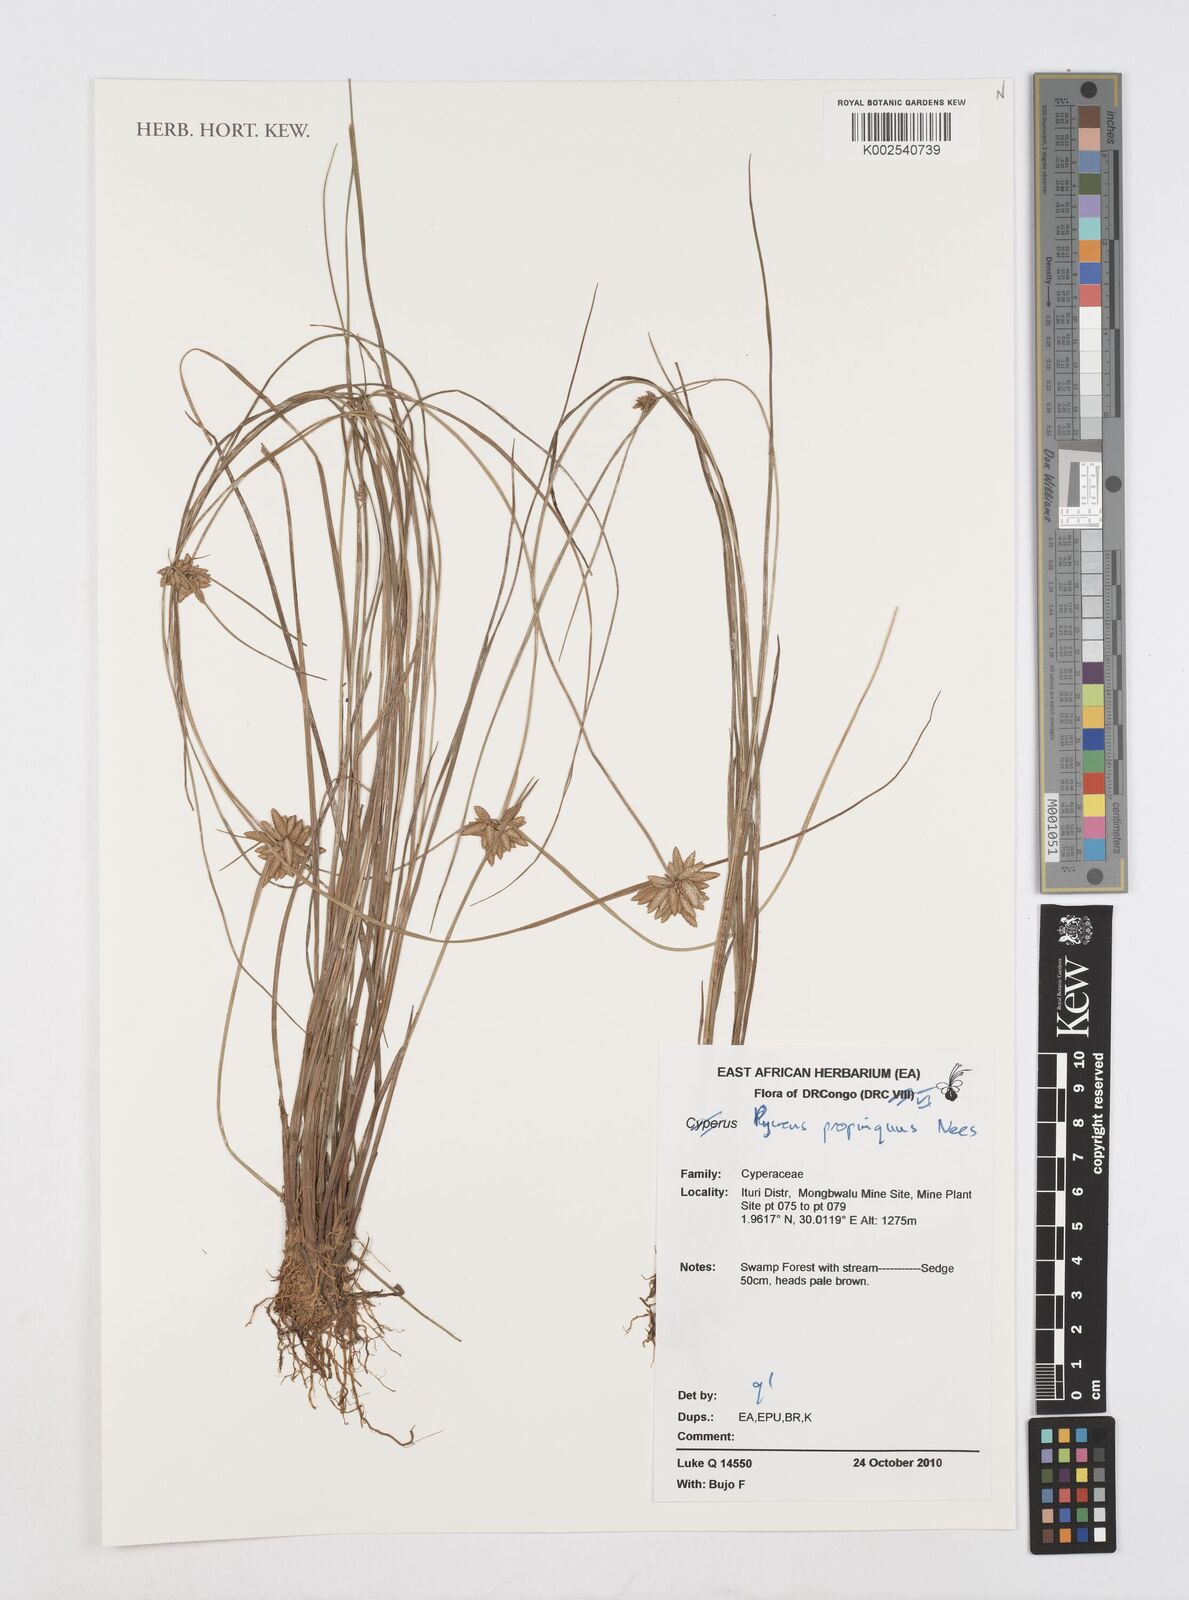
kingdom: Plantae
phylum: Tracheophyta
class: Liliopsida
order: Poales
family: Cyperaceae
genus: Cyperus
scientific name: Cyperus
